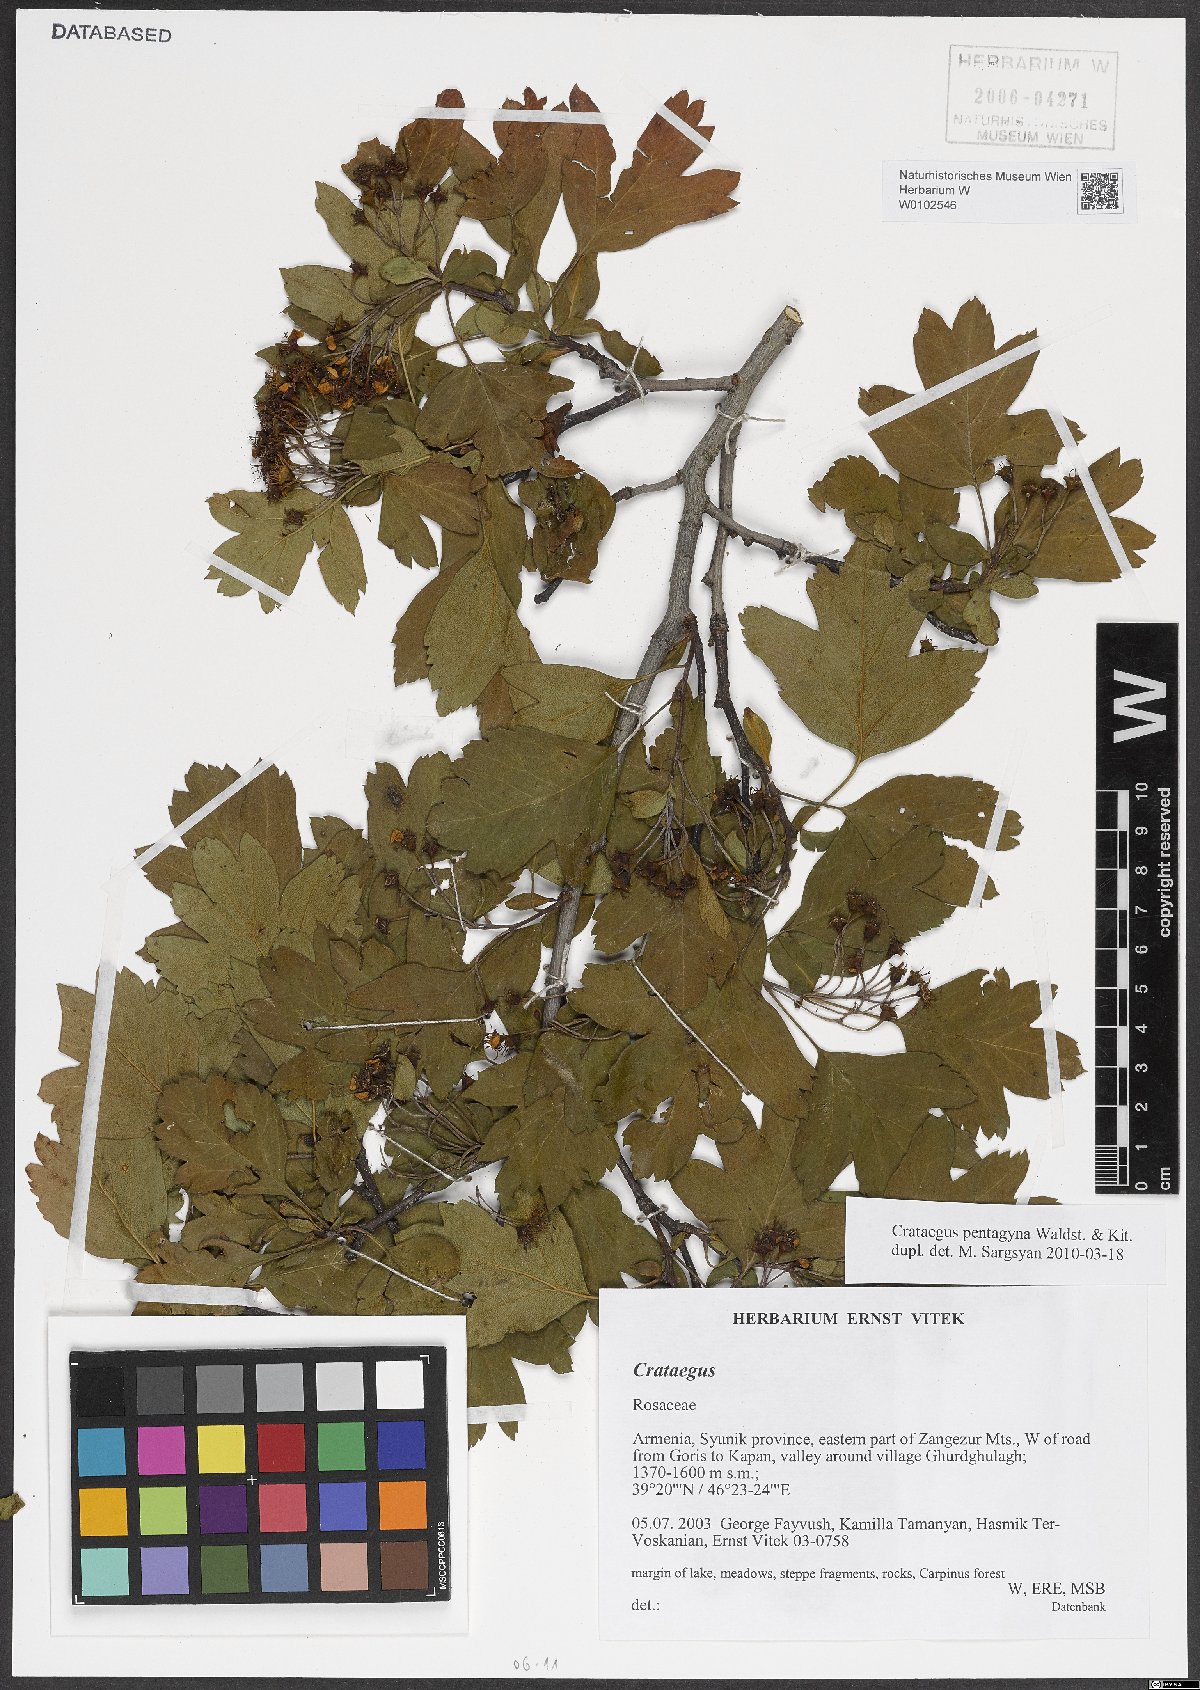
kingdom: Plantae
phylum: Tracheophyta
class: Magnoliopsida
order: Rosales
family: Rosaceae
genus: Crataegus
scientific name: Crataegus pentagyna
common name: Small-flowered black hawthorn
